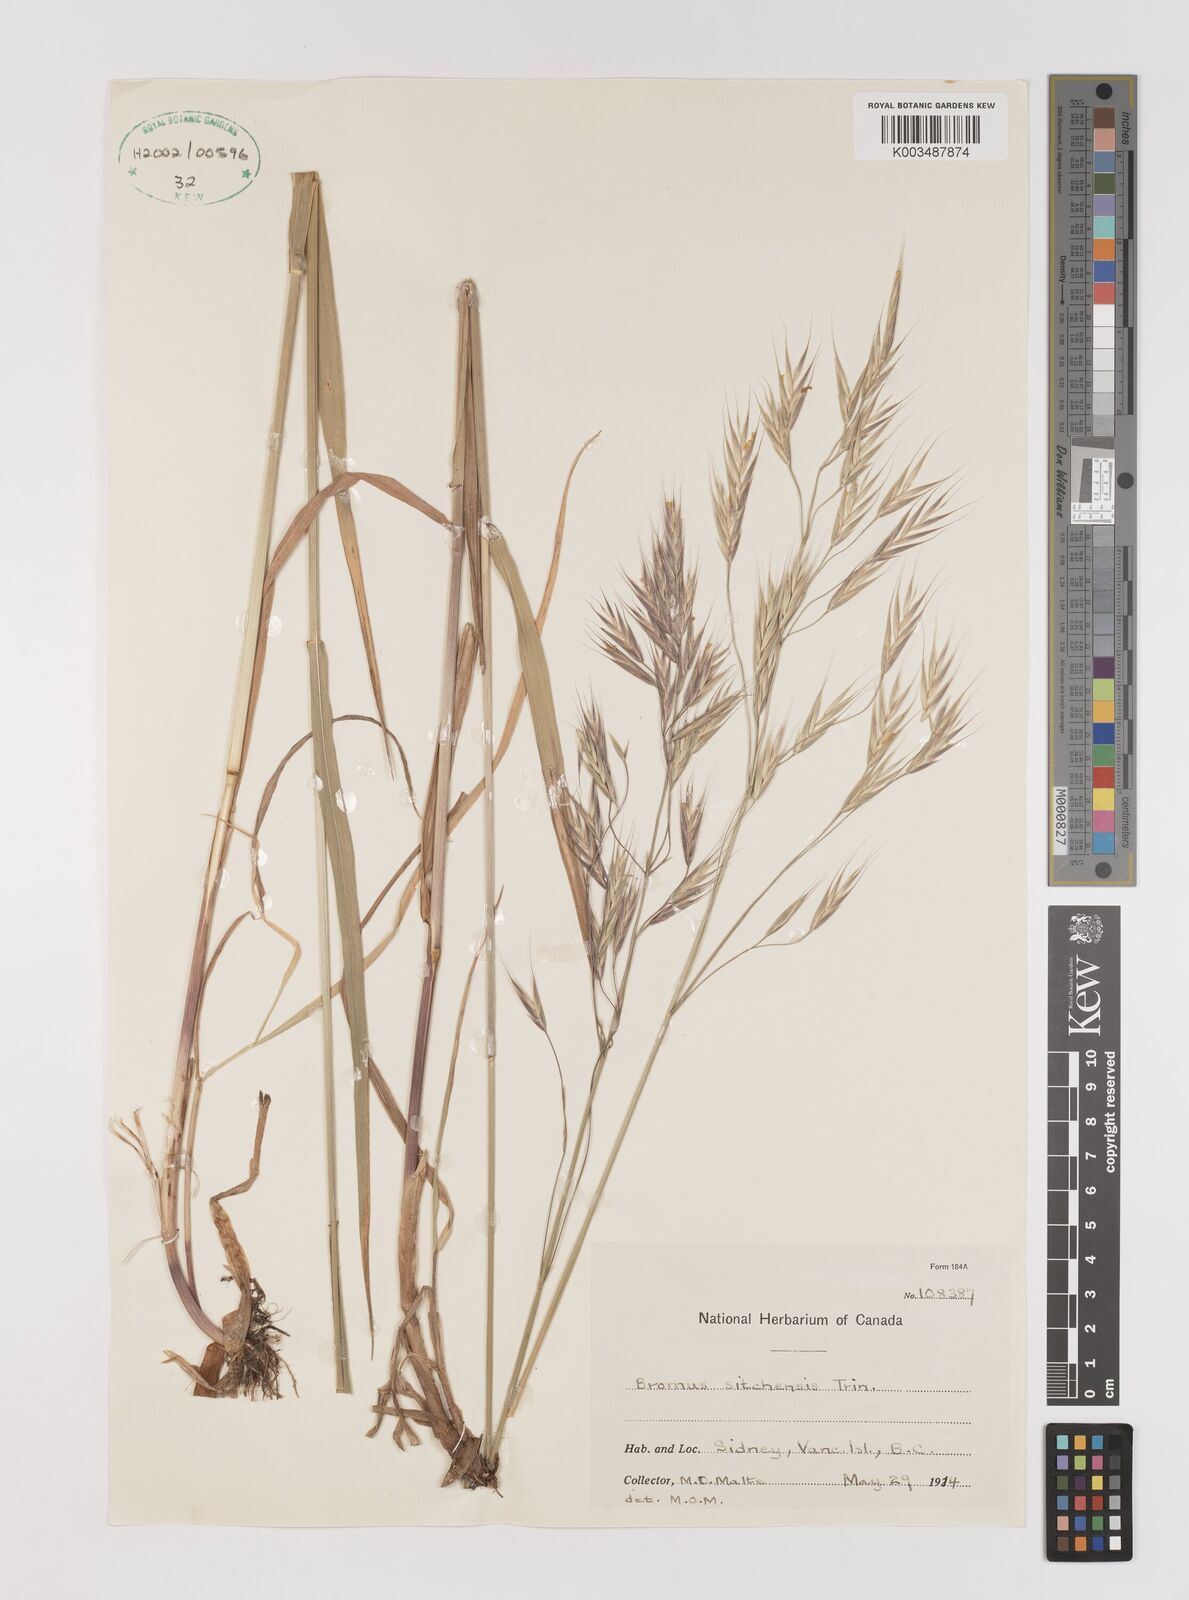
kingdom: Plantae
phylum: Tracheophyta
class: Liliopsida
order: Poales
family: Poaceae
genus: Bromus
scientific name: Bromus sitchensis
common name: Sitka brome
